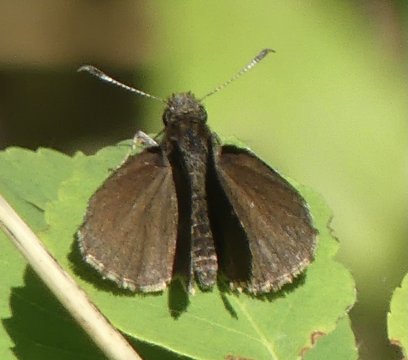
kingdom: Animalia
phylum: Arthropoda
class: Insecta
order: Lepidoptera
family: Hesperiidae
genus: Mastor
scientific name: Mastor vialis
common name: Common Roadside-Skipper
